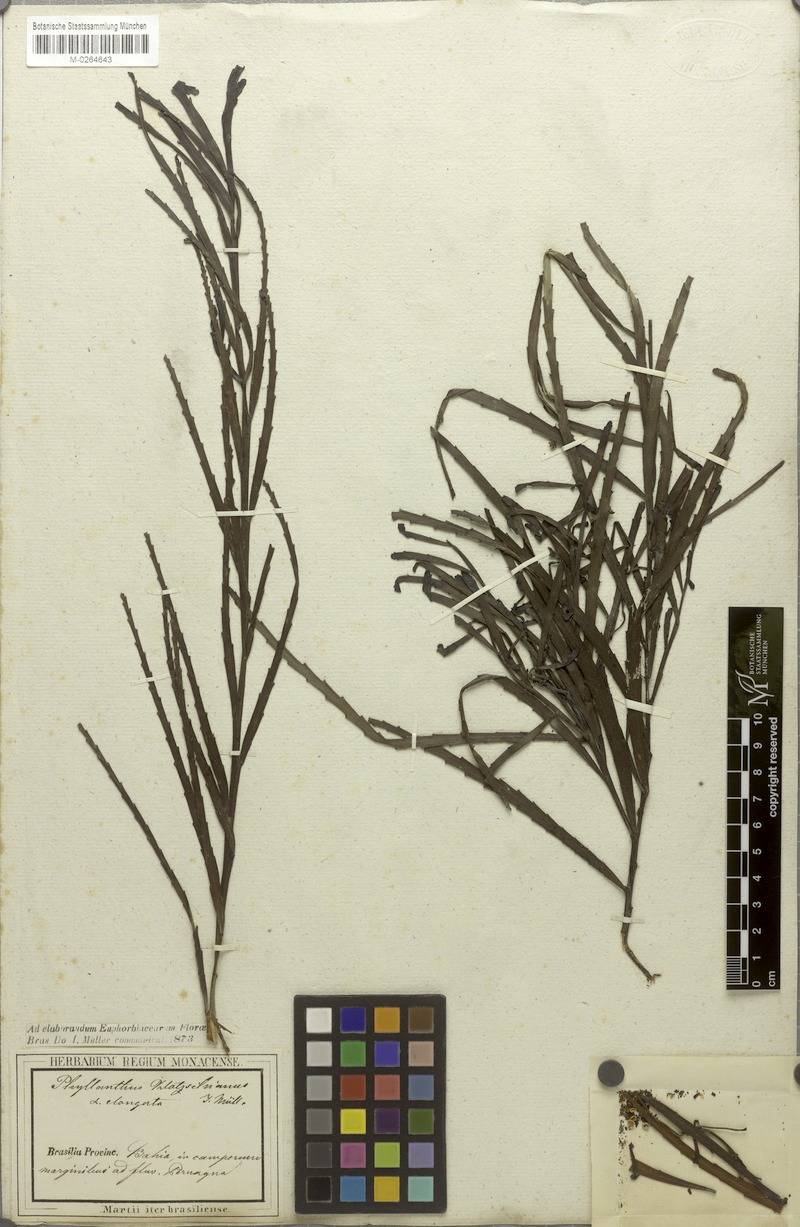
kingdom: Plantae
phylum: Tracheophyta
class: Magnoliopsida
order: Malpighiales
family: Phyllanthaceae
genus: Phyllanthus
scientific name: Phyllanthus robustus
